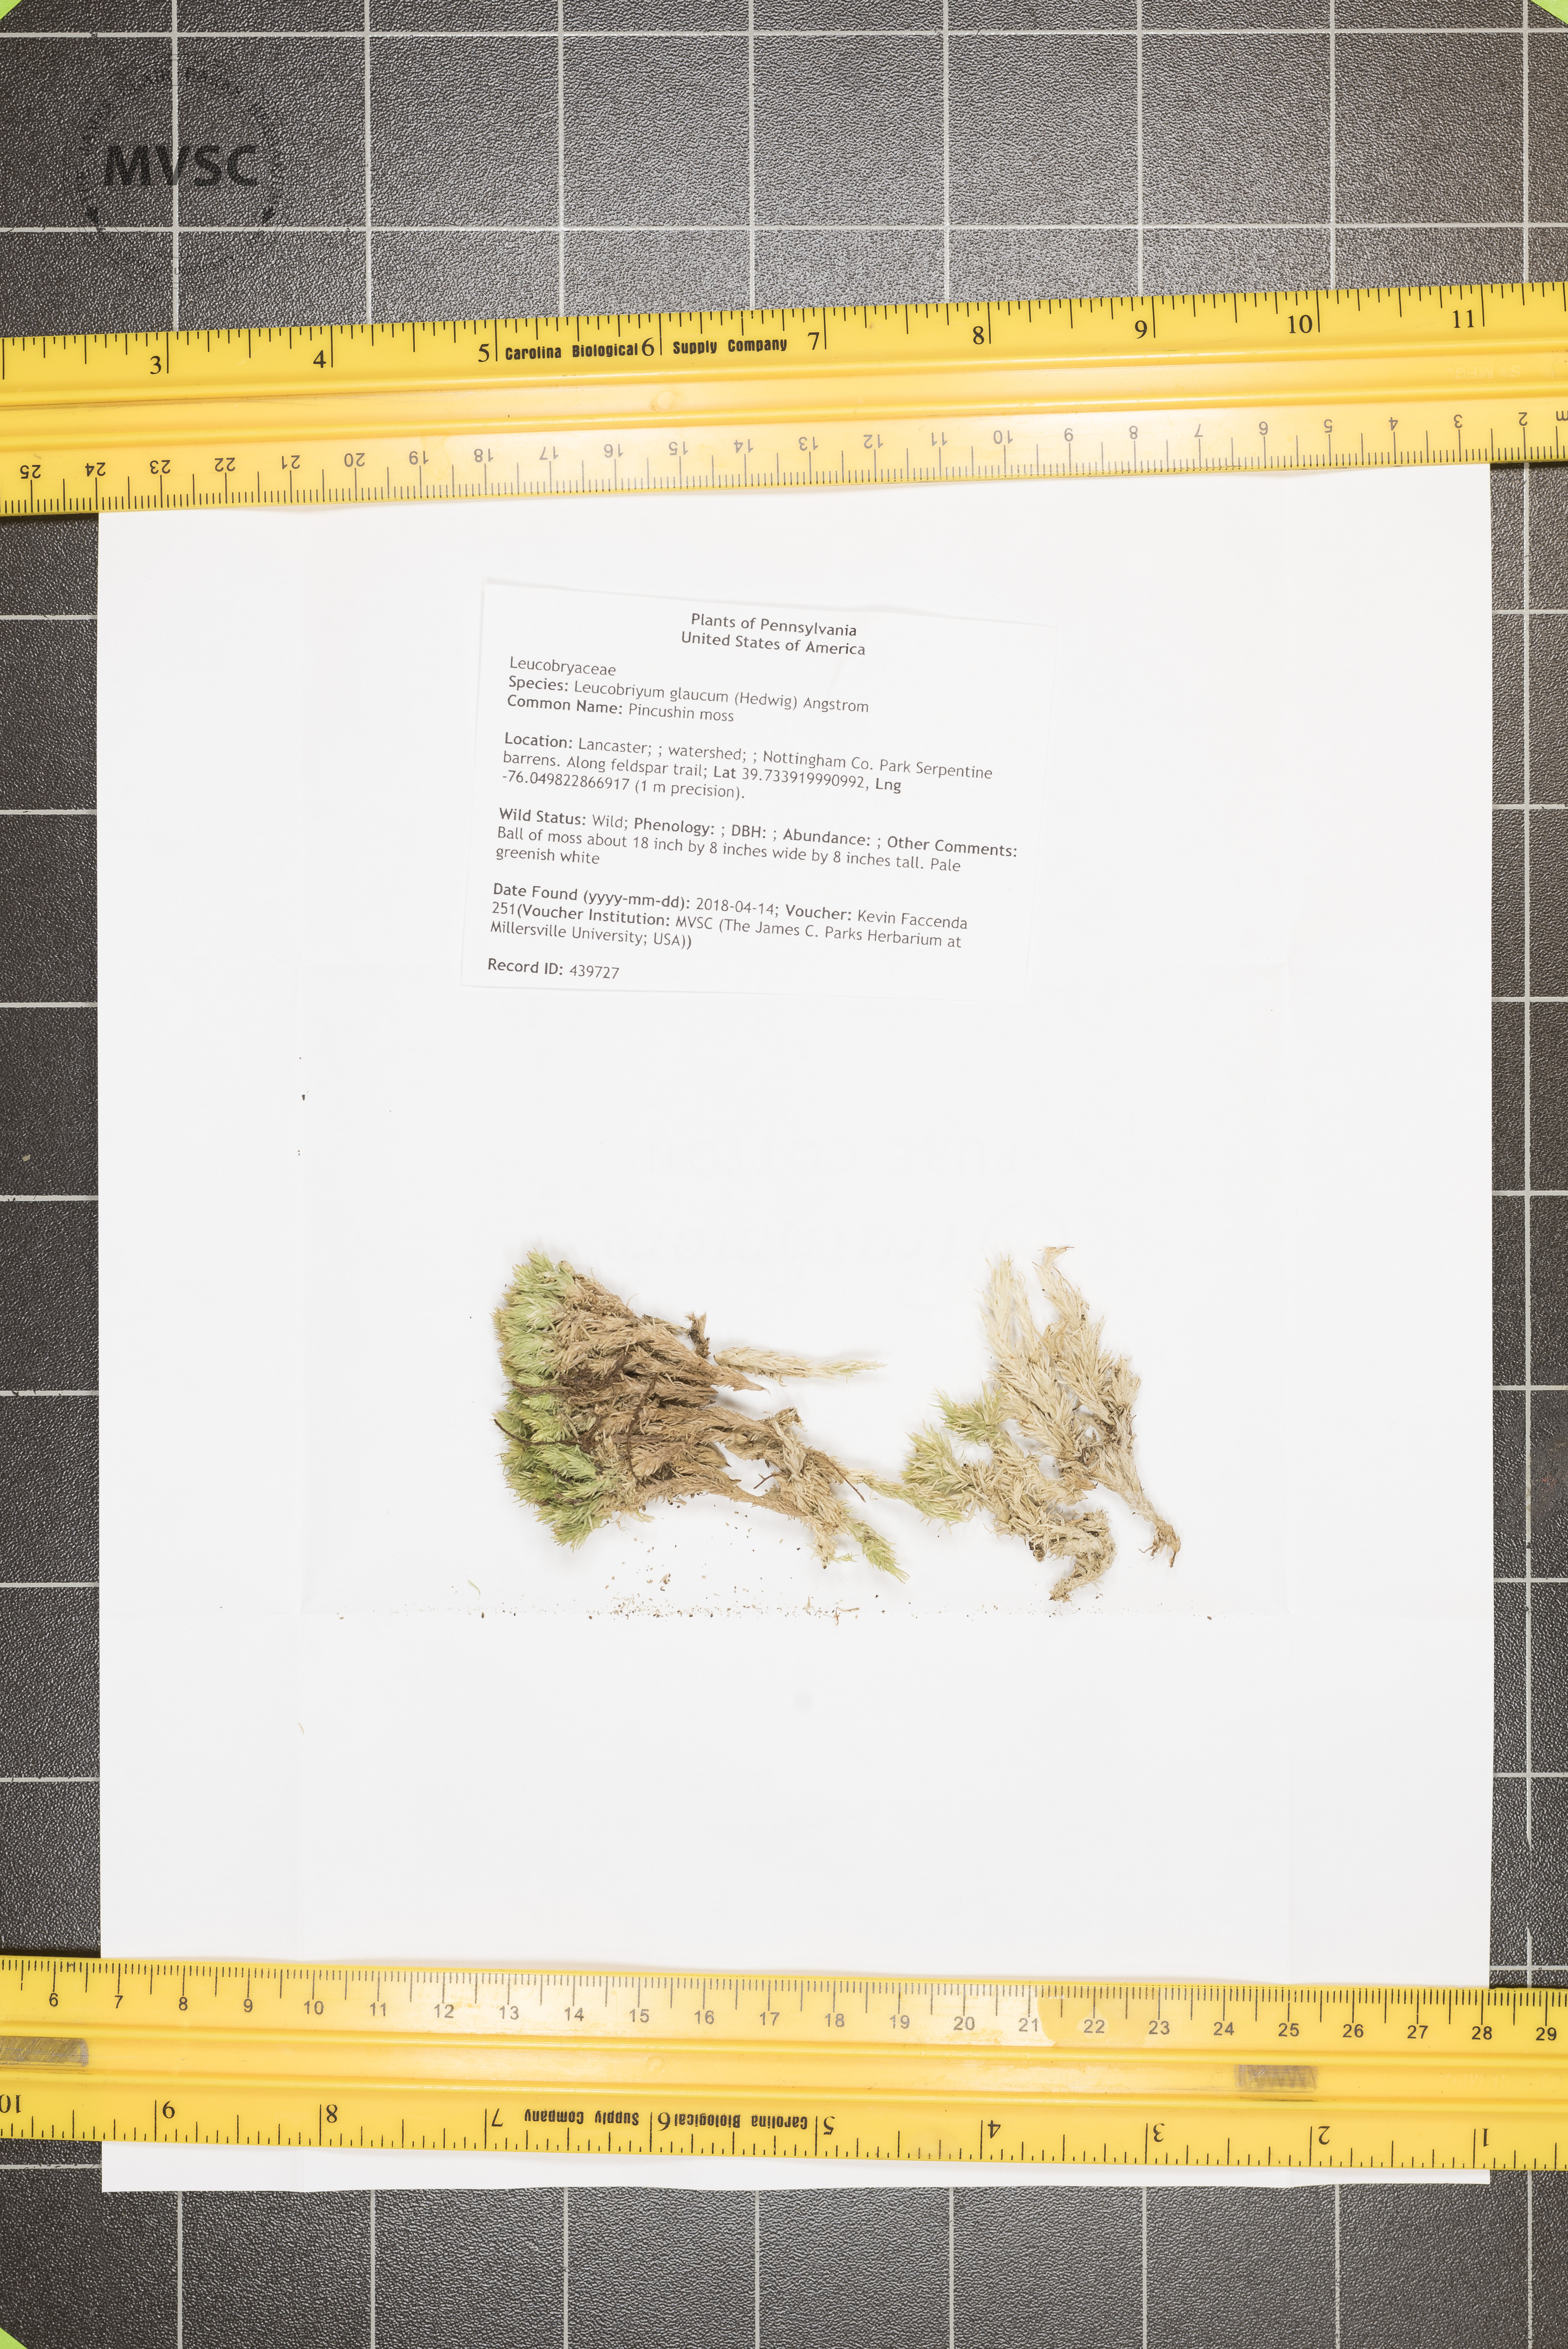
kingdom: Plantae
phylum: Bryophyta
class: Bryopsida
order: Dicranales
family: Leucobryaceae
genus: Leucobryum
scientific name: Leucobryum glaucum
